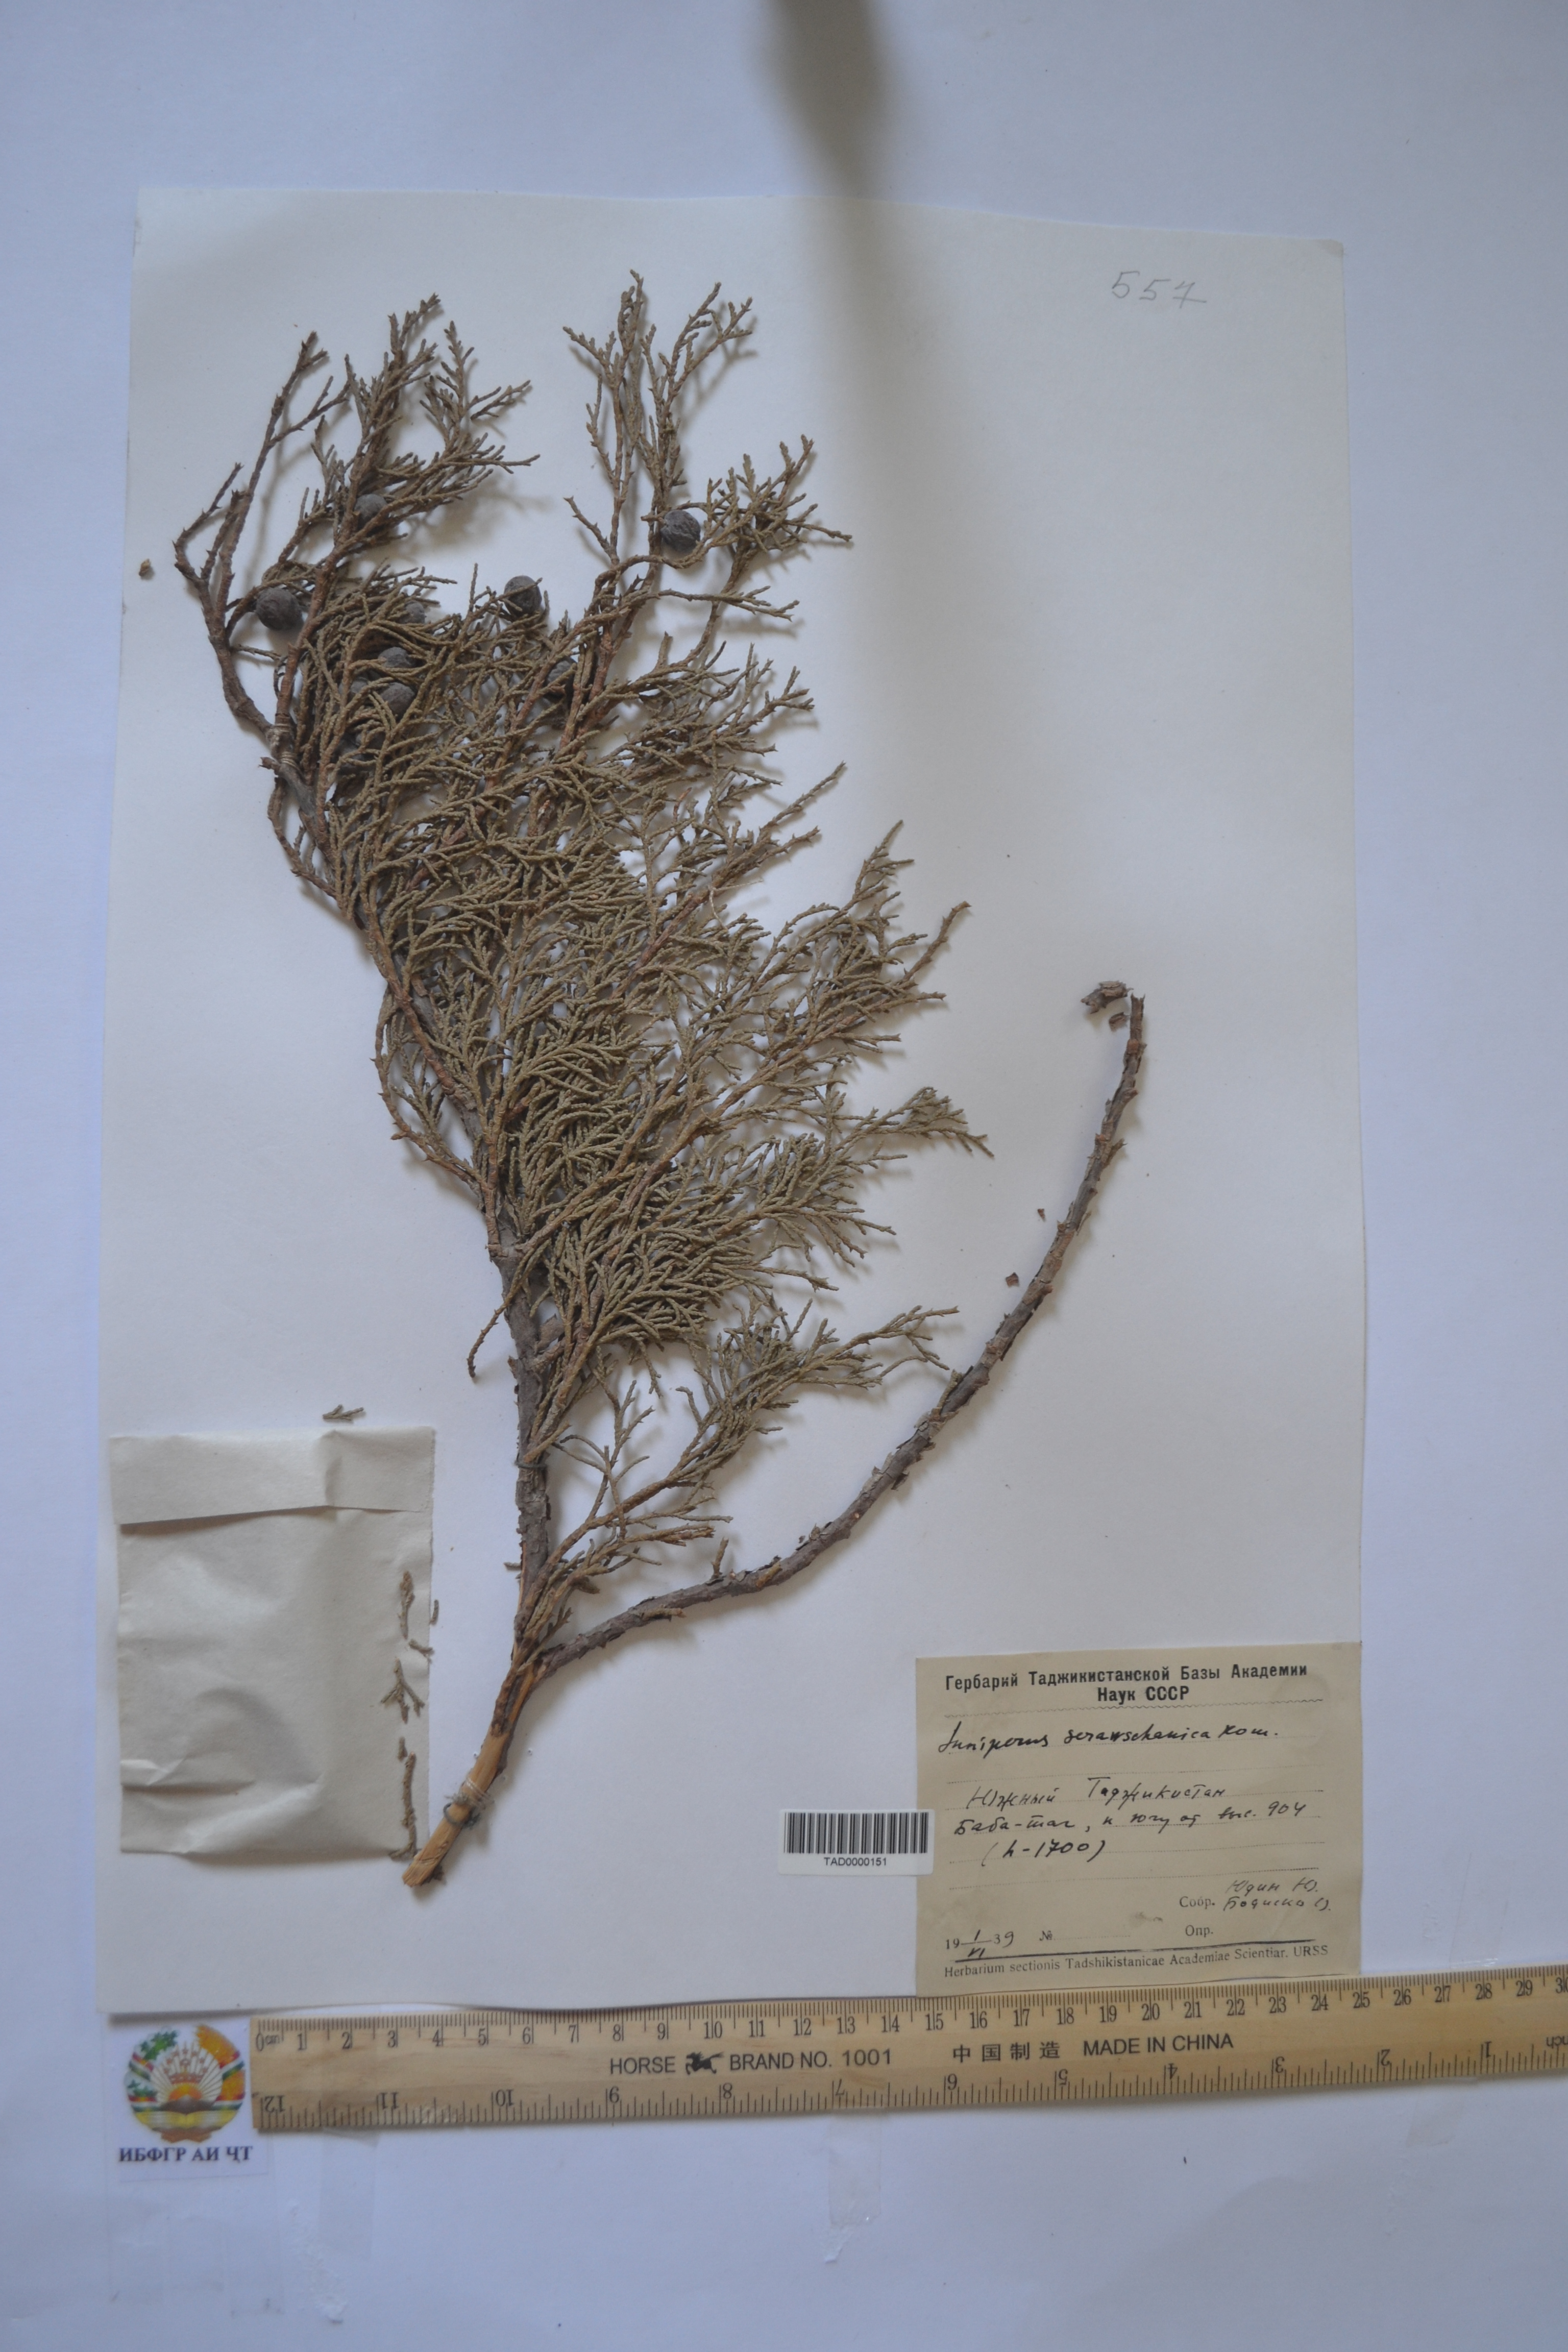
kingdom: Plantae
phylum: Tracheophyta
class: Pinopsida
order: Pinales
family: Cupressaceae
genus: Juniperus
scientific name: Juniperus excelsa
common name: Crimean juniper
